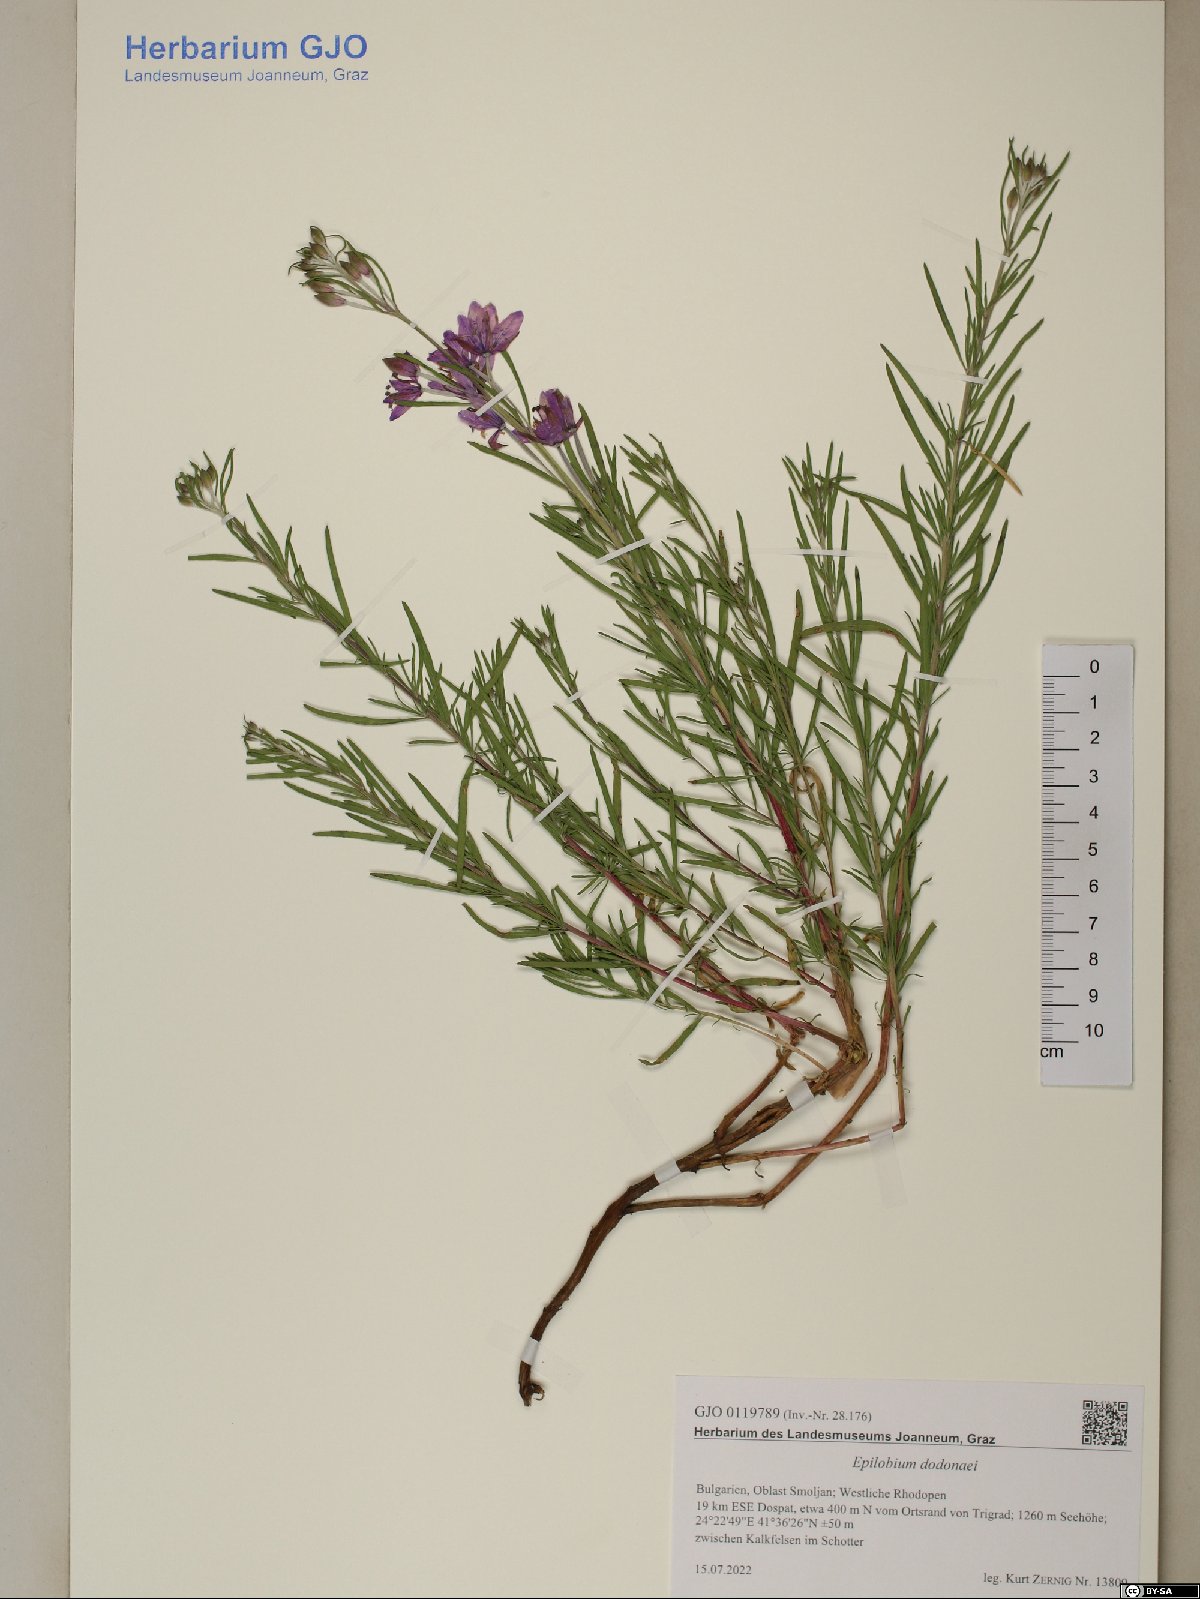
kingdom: Plantae
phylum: Tracheophyta
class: Magnoliopsida
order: Myrtales
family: Onagraceae
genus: Chamaenerion
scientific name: Chamaenerion dodonaei
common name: Rosemary-leaved willowherb
